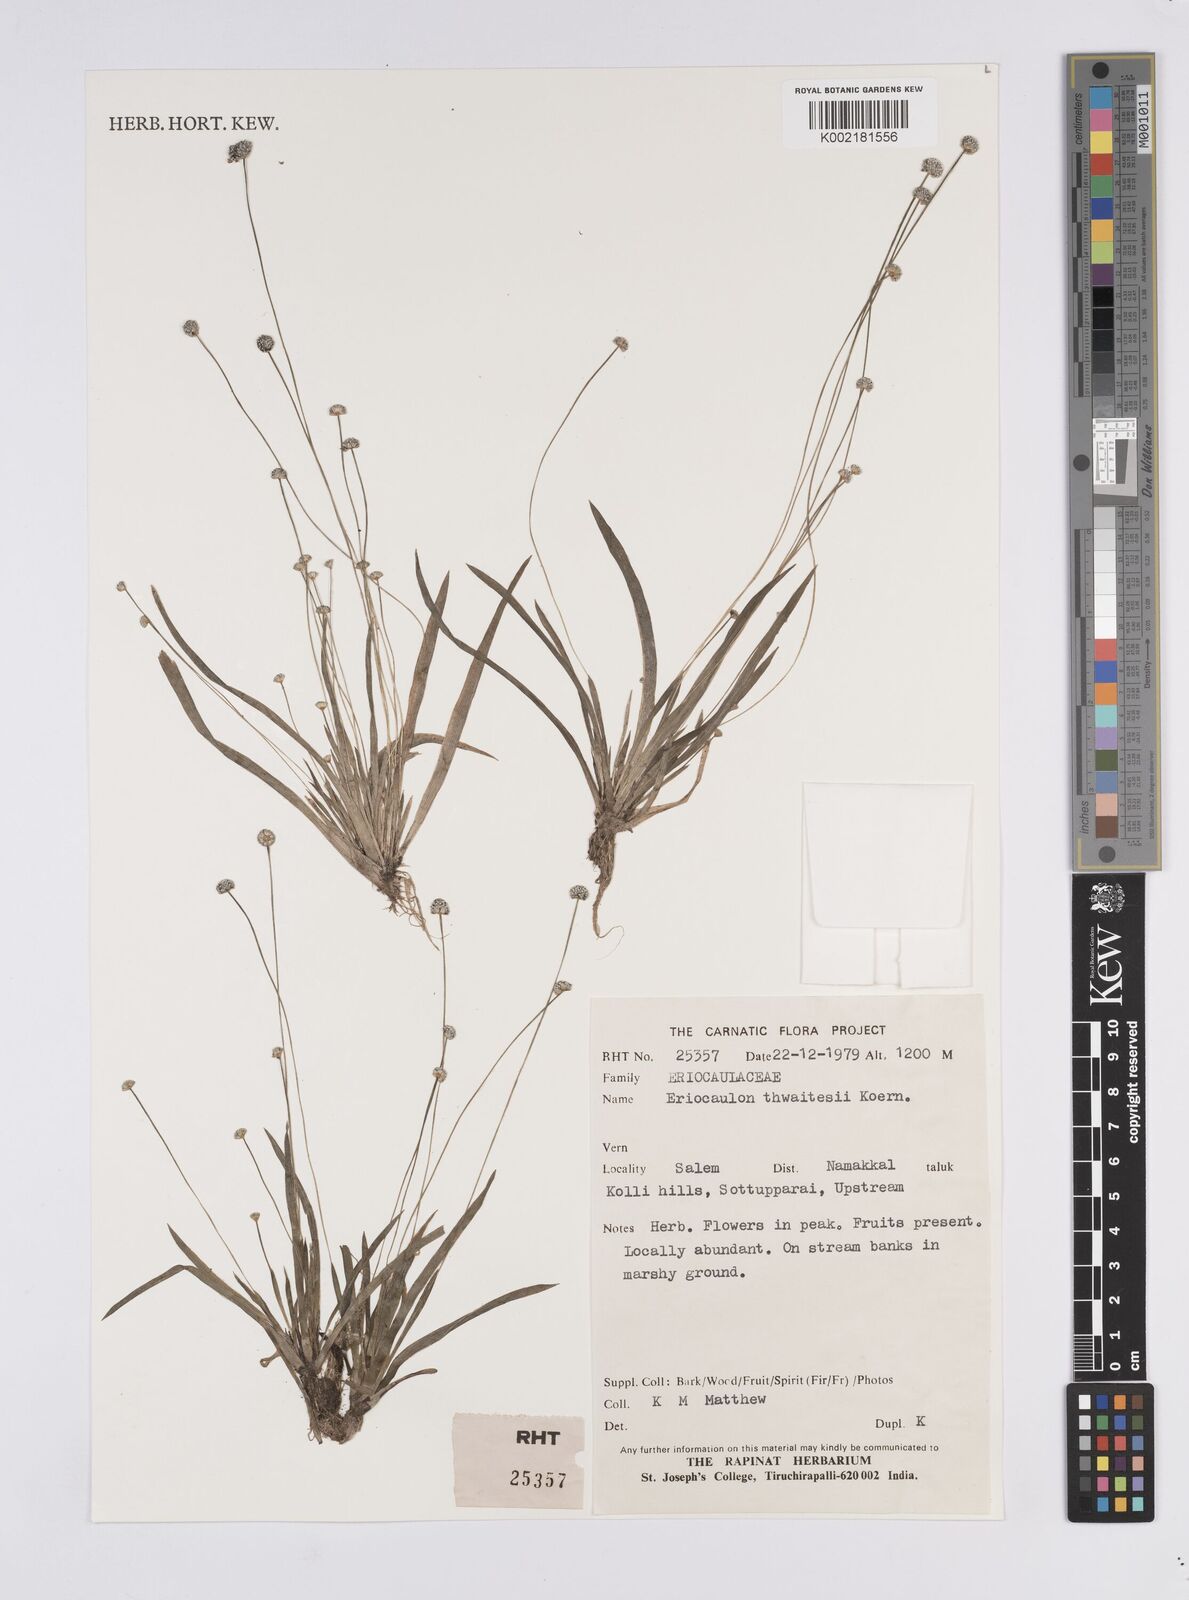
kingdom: Plantae
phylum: Tracheophyta
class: Liliopsida
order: Poales
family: Eriocaulaceae
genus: Eriocaulon
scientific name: Eriocaulon thwaitesii
